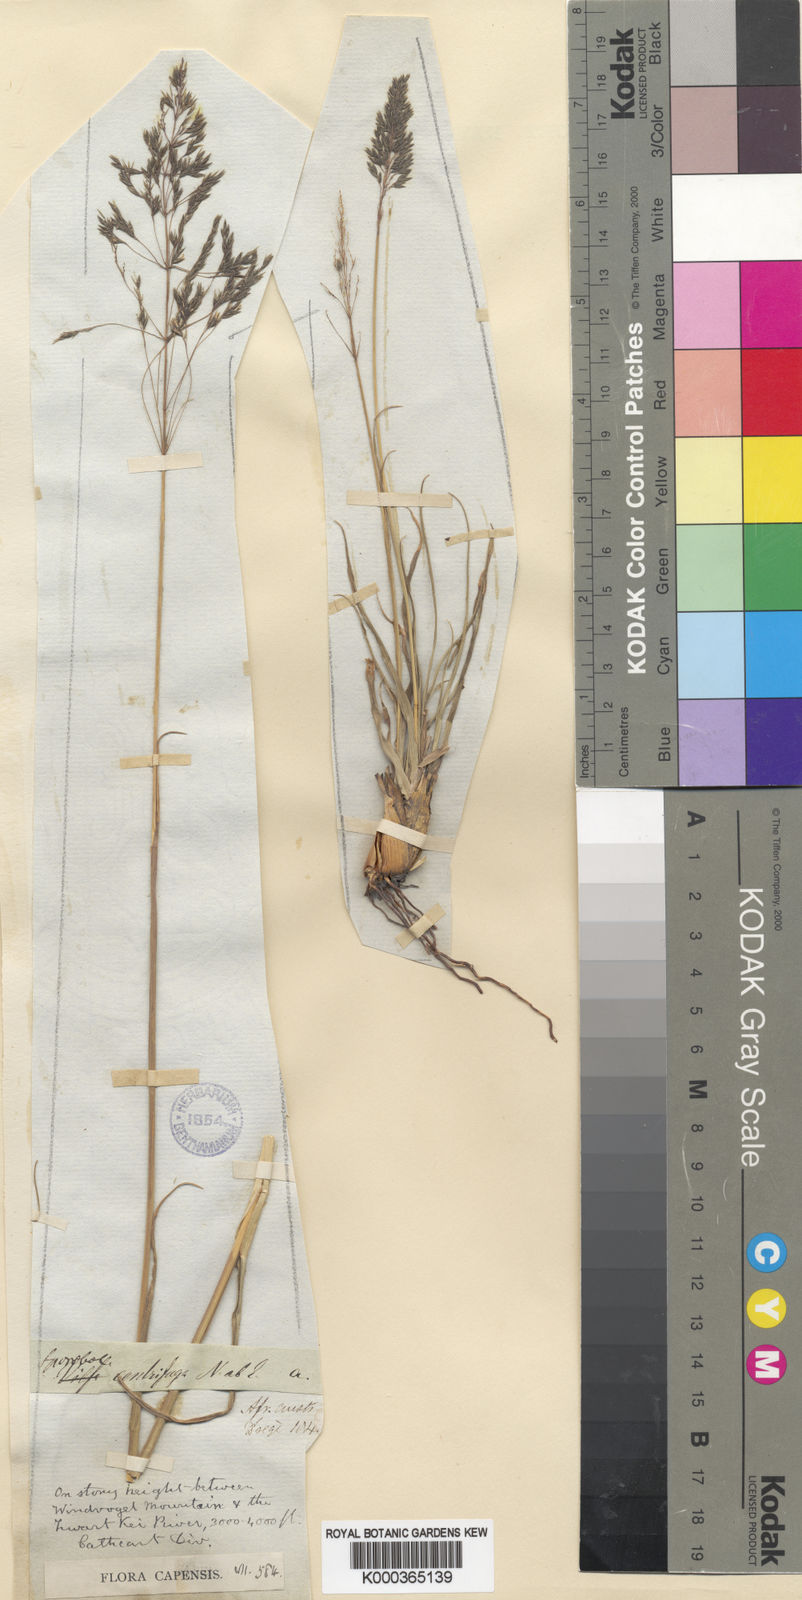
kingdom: Plantae
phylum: Tracheophyta
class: Liliopsida
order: Poales
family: Poaceae
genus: Sporobolus
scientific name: Sporobolus centrifugus
